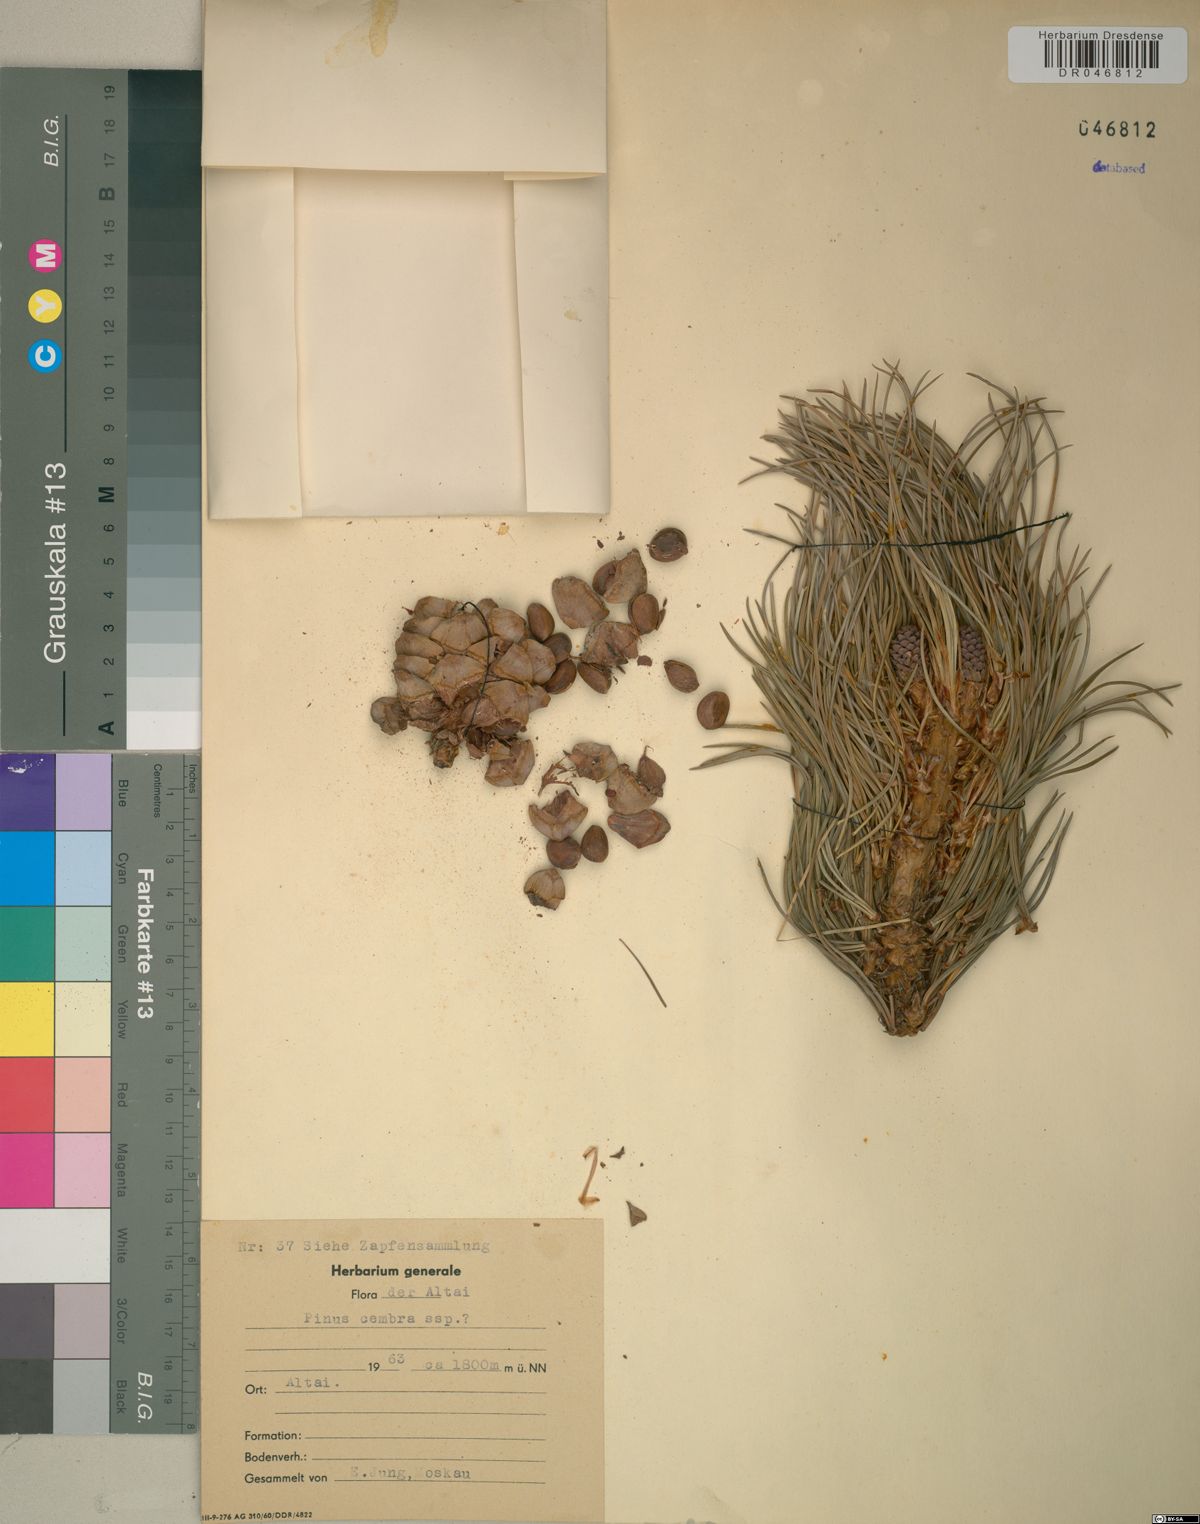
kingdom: Plantae
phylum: Tracheophyta
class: Pinopsida
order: Pinales
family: Pinaceae
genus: Pinus
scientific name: Pinus cembra
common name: Arolla pine
